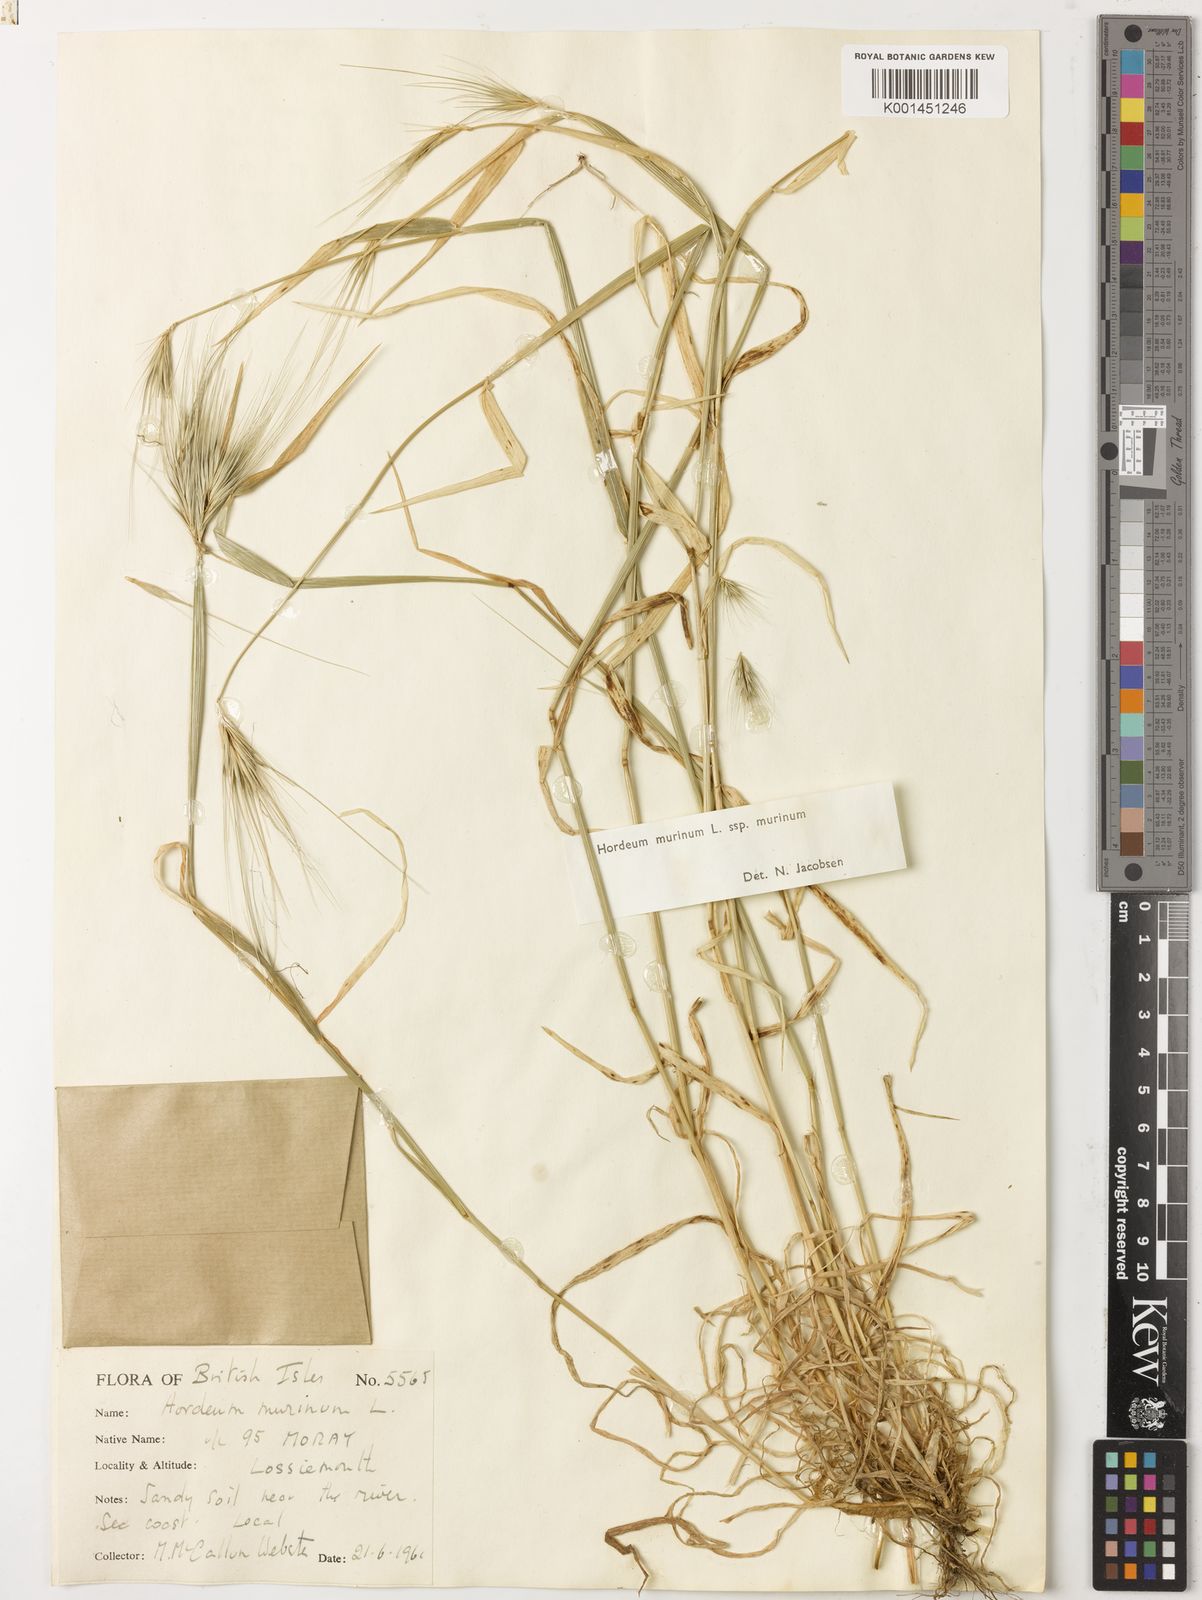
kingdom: Plantae
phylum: Tracheophyta
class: Liliopsida
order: Poales
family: Poaceae
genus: Hordeum
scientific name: Hordeum murinum
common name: Wall barley
